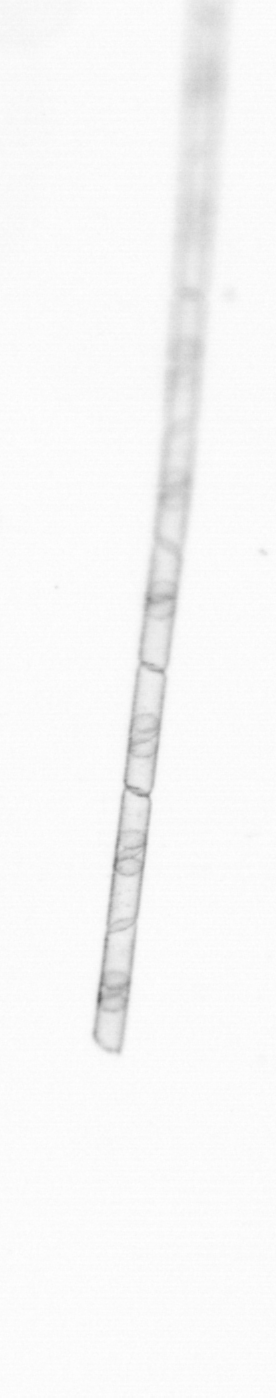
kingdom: Chromista
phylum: Ochrophyta
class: Bacillariophyceae
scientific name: Bacillariophyceae
